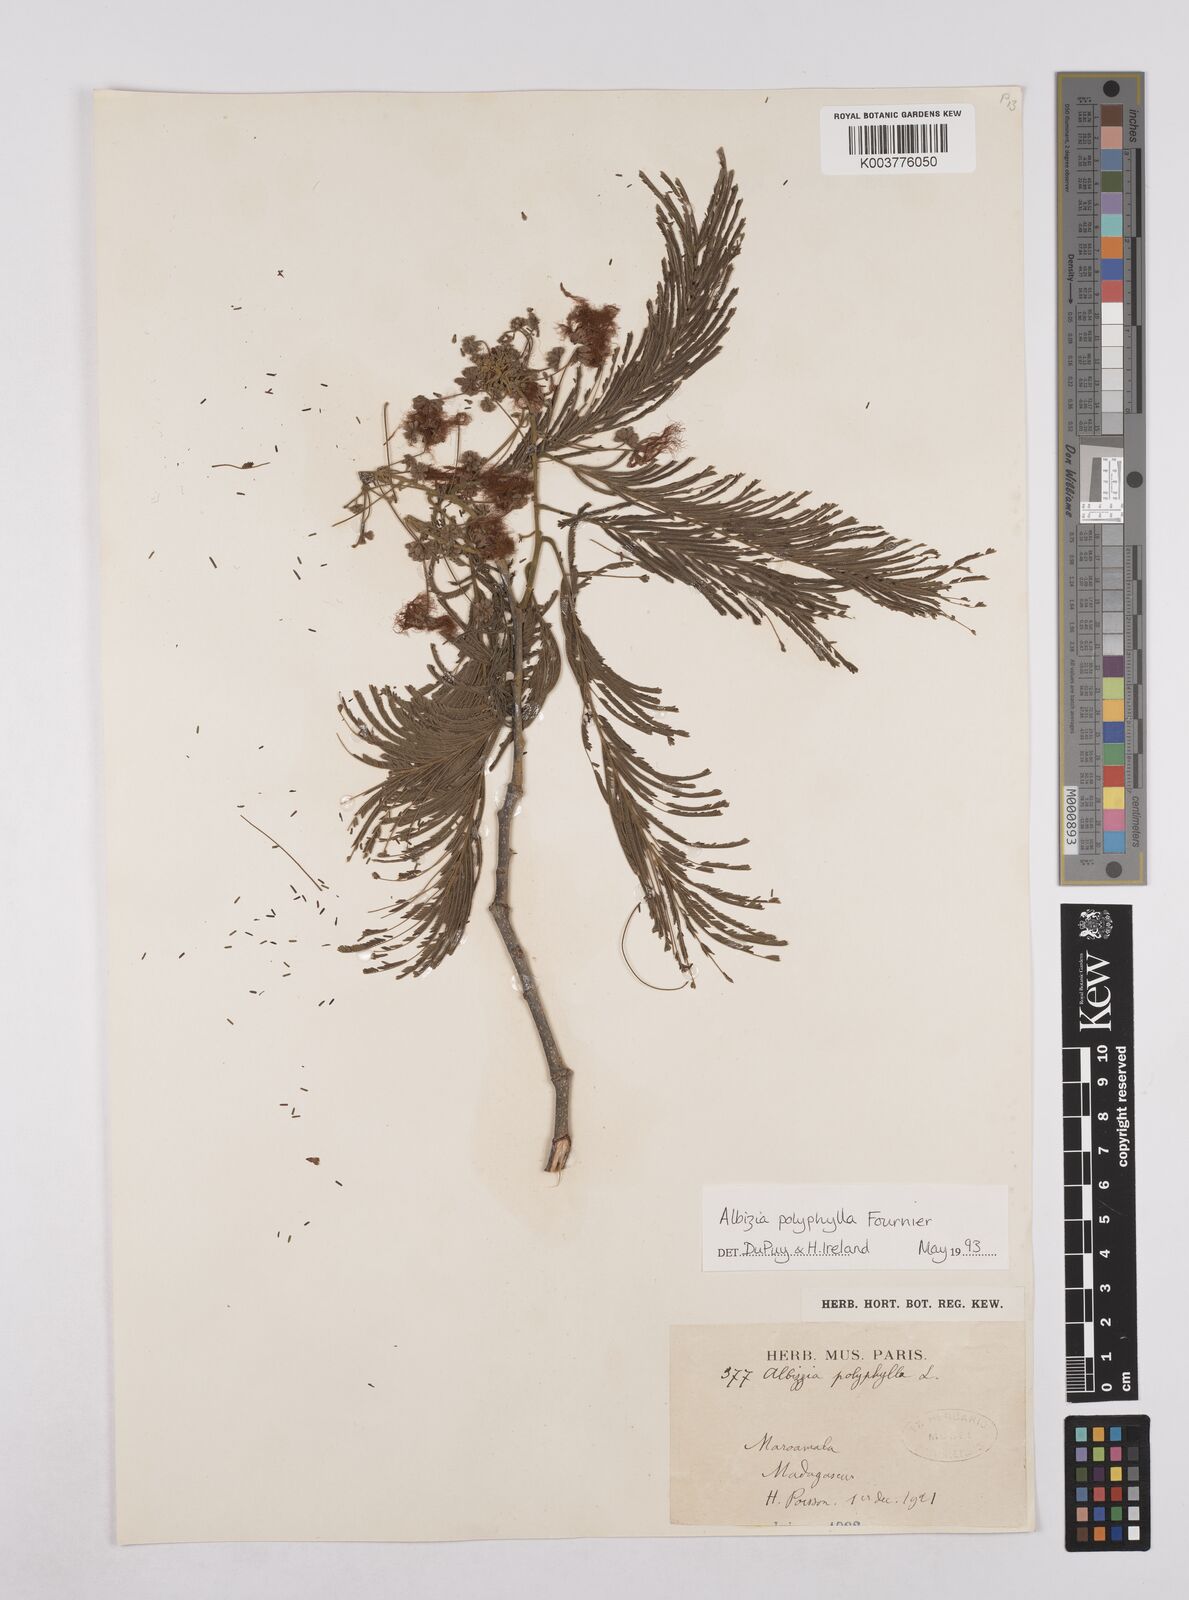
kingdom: Plantae
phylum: Tracheophyta
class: Magnoliopsida
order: Fabales
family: Fabaceae
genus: Albizia
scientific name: Albizia polyphylla
